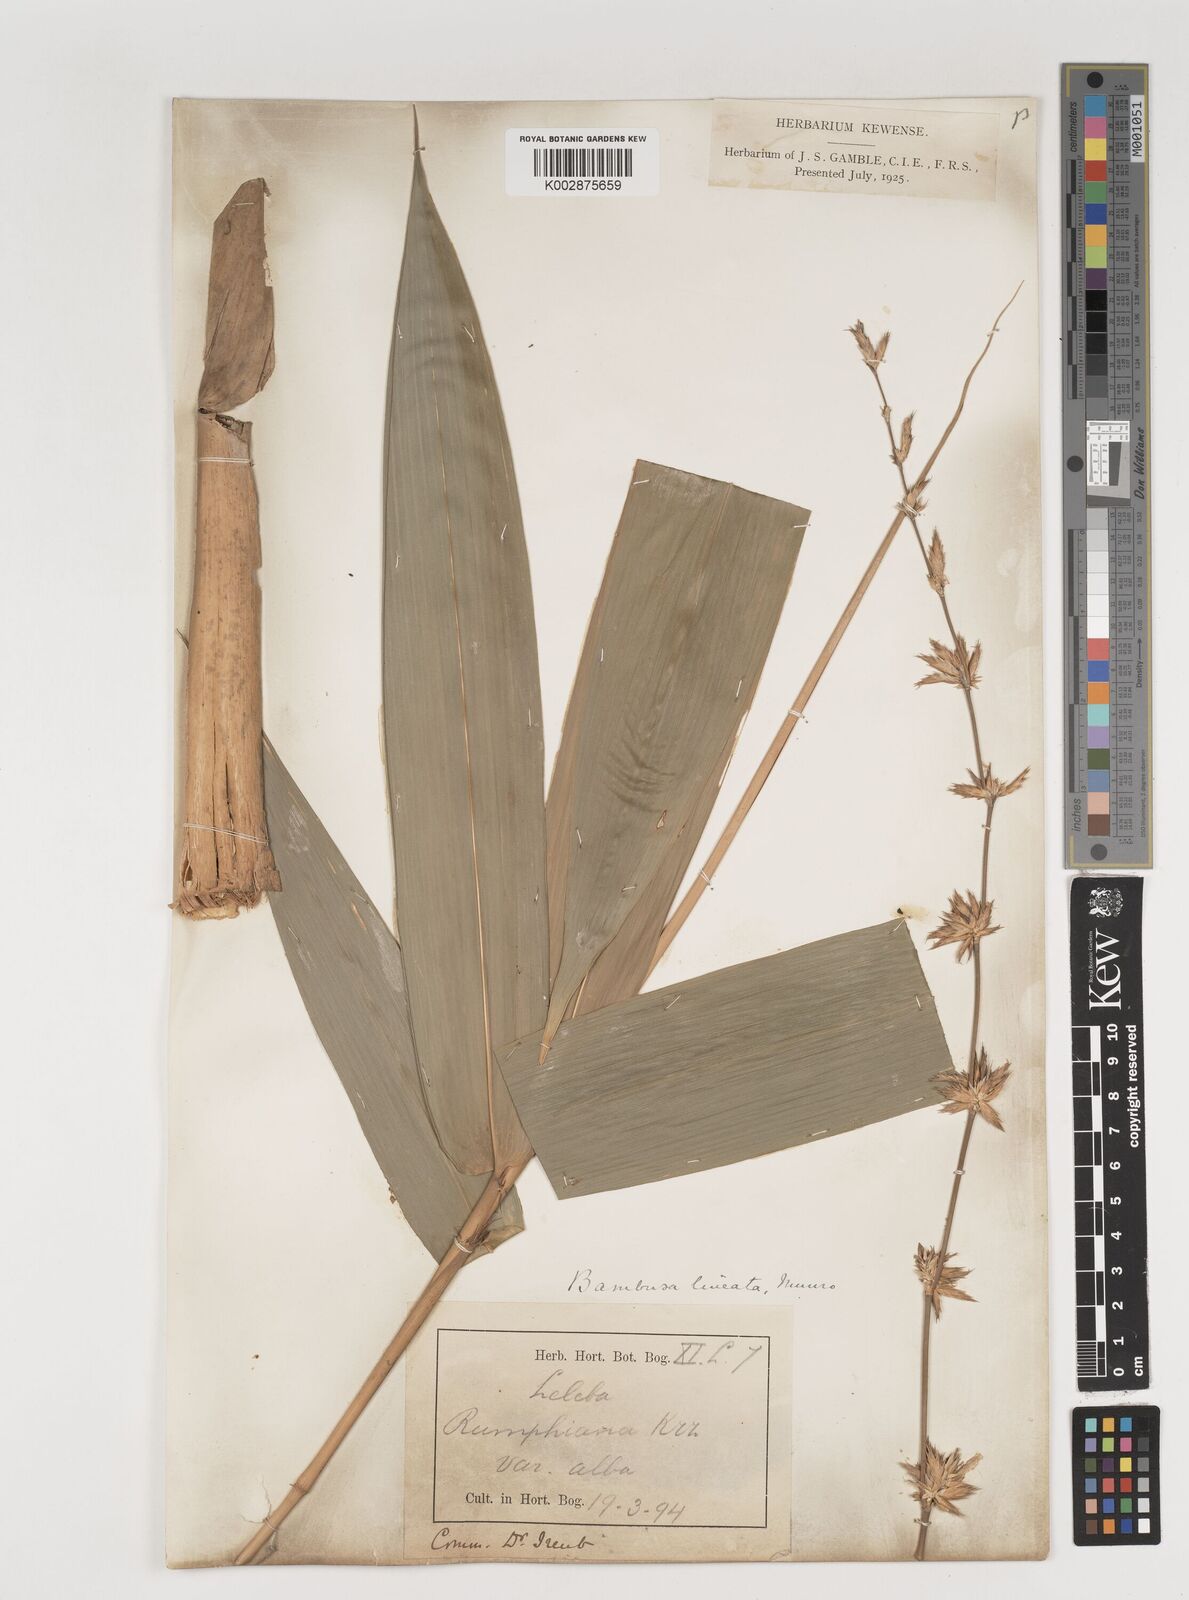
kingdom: Plantae
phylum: Tracheophyta
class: Liliopsida
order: Poales
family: Poaceae
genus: Neololeba
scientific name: Neololeba atra
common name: Cape bamboo
